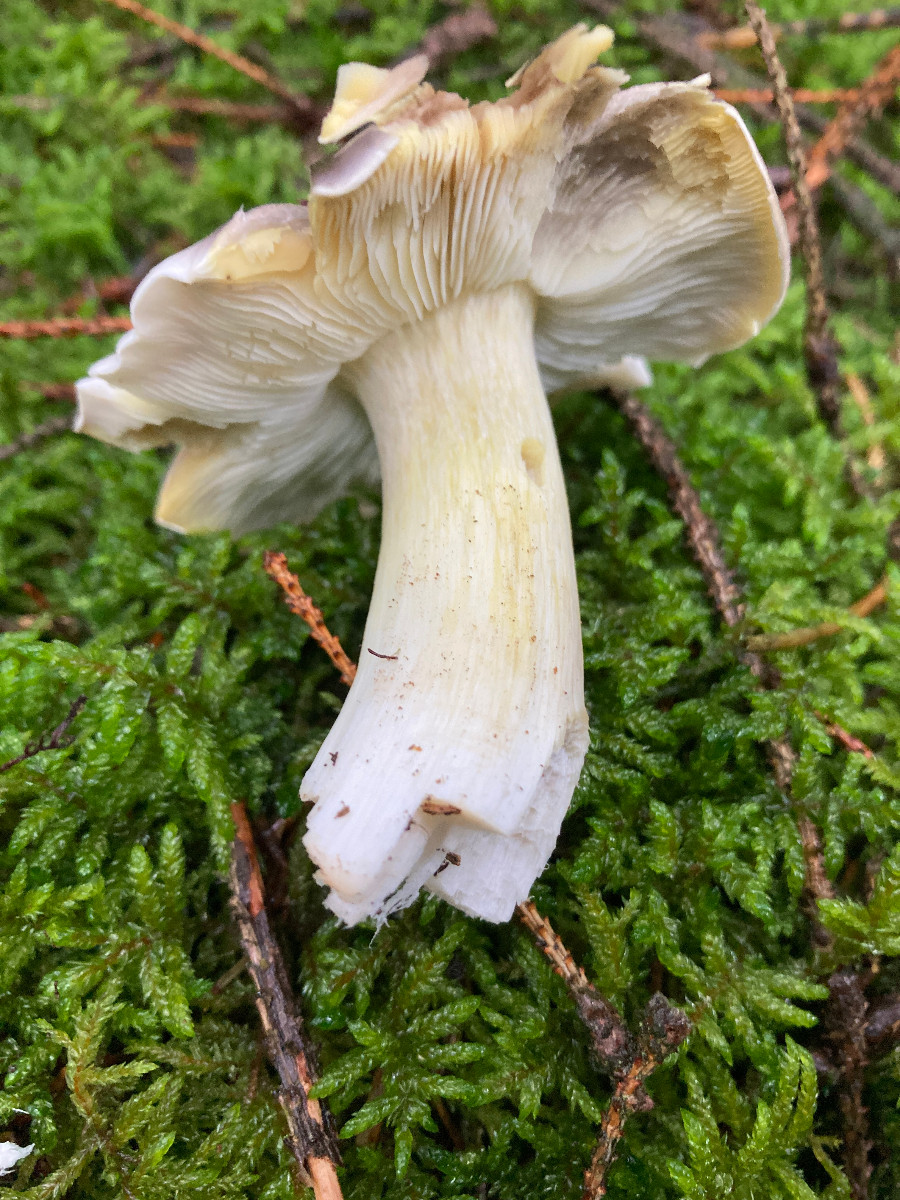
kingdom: Fungi
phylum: Basidiomycota
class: Agaricomycetes
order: Agaricales
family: Tricholomataceae
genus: Tricholoma
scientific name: Tricholoma portentosum
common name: grå ridderhat
